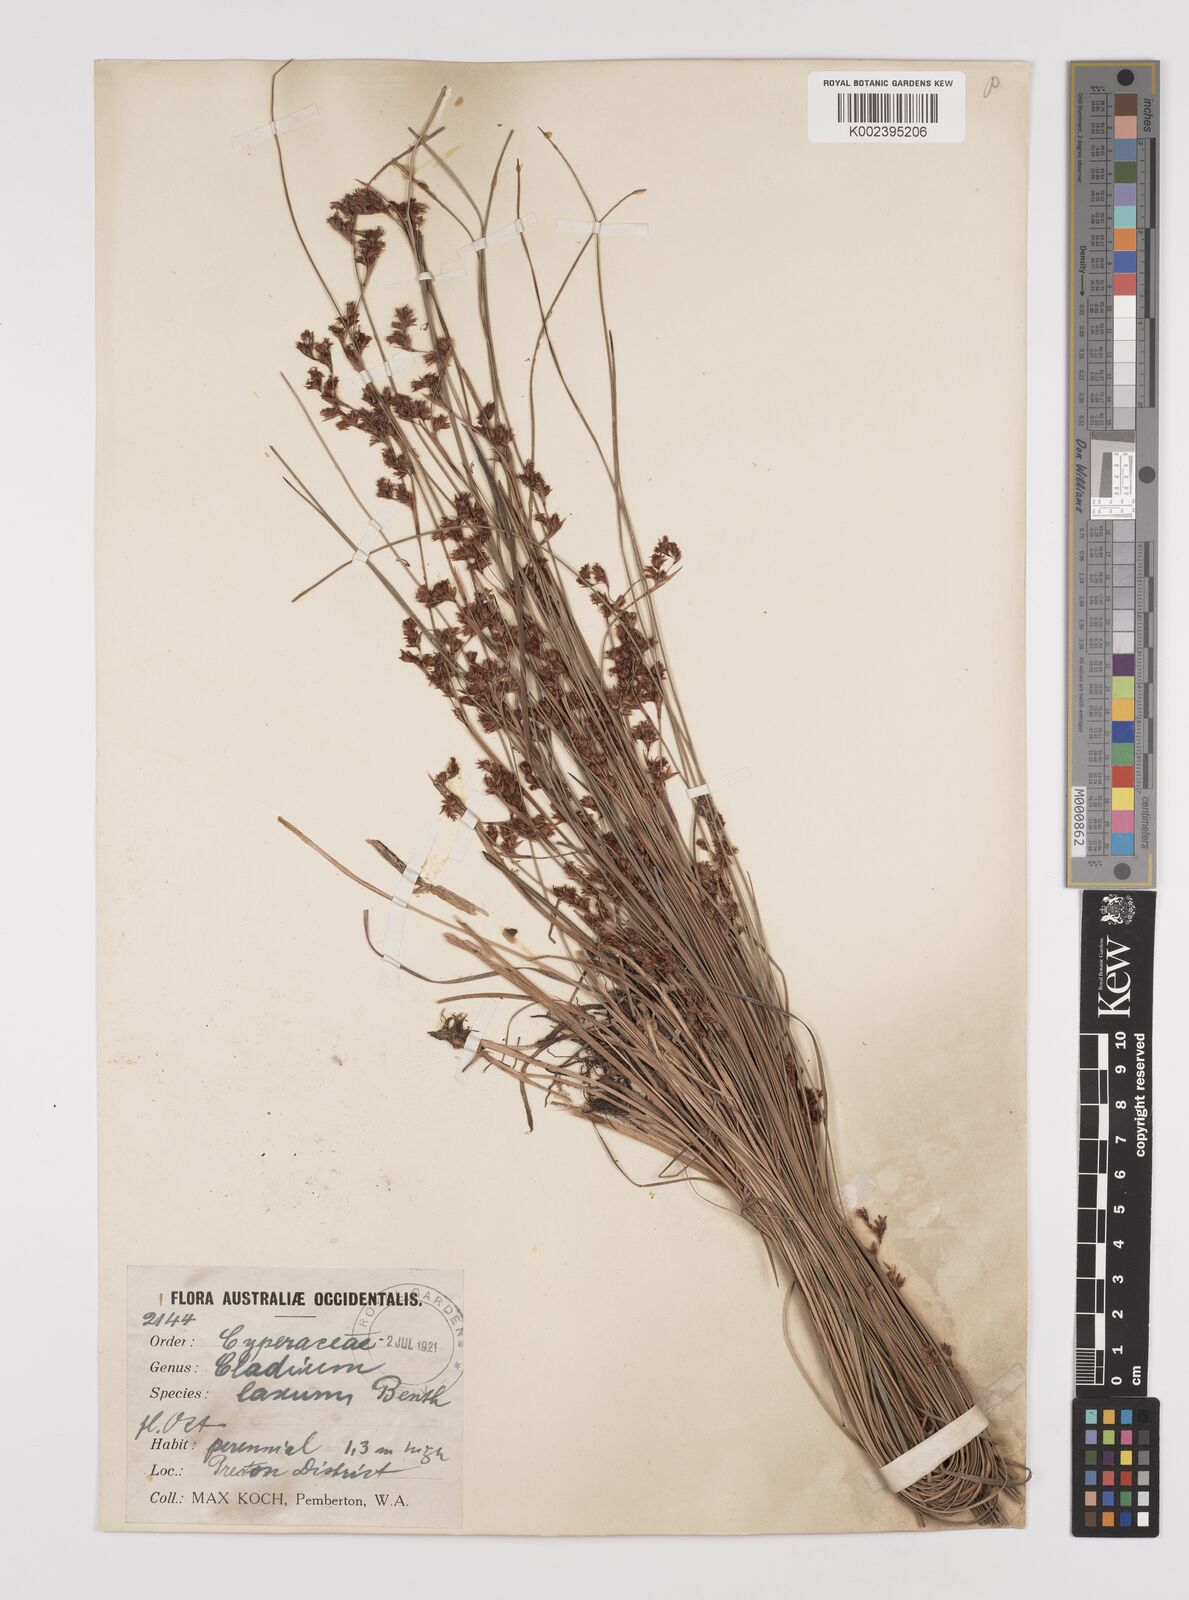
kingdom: Plantae
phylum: Tracheophyta
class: Liliopsida
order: Poales
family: Cyperaceae
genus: Machaerina
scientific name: Machaerina laxa
